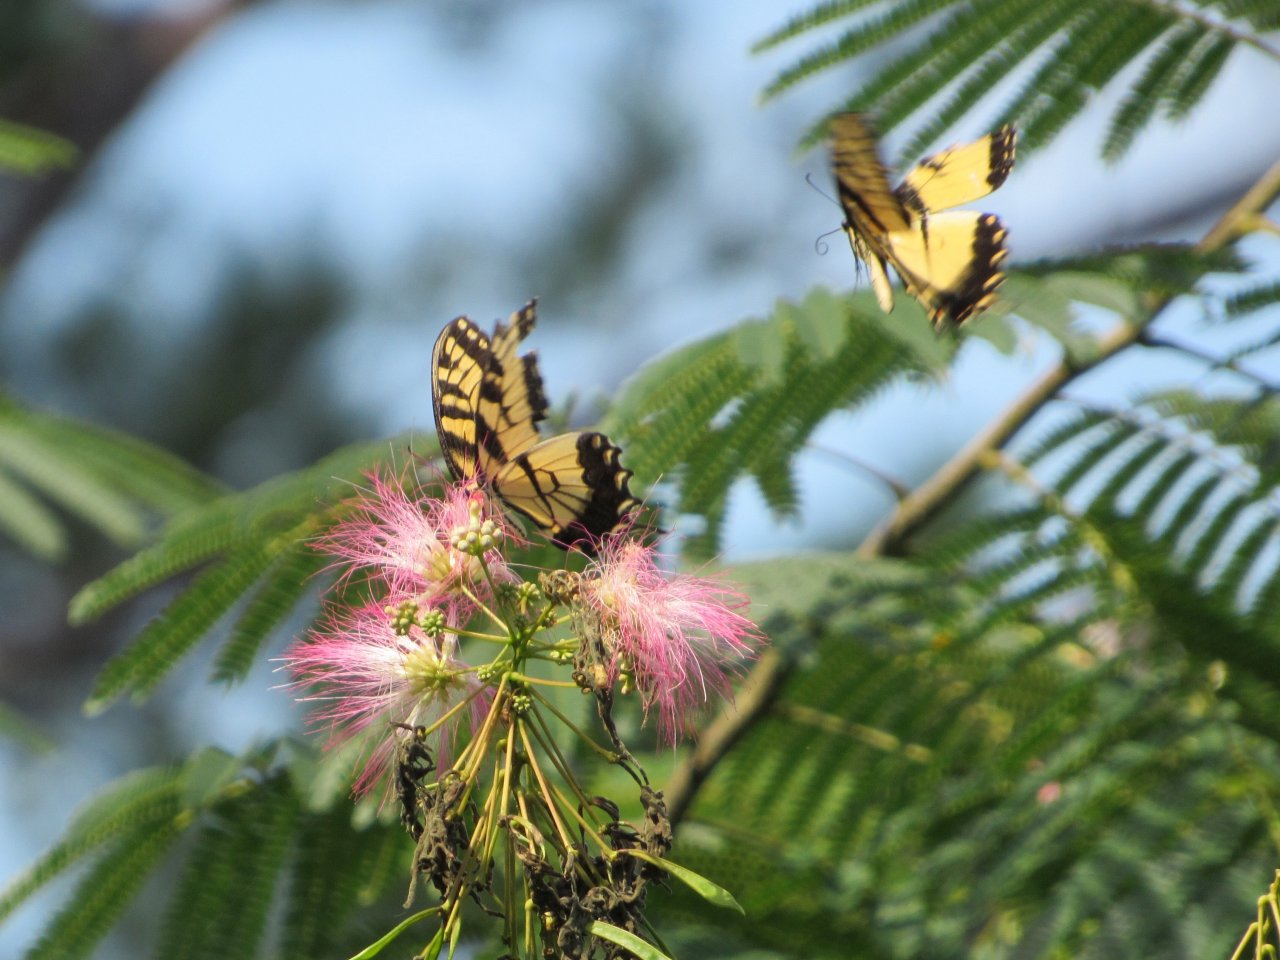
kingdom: Animalia
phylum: Arthropoda
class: Insecta
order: Lepidoptera
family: Papilionidae
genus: Pterourus
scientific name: Pterourus glaucus
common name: Eastern Tiger Swallowtail
